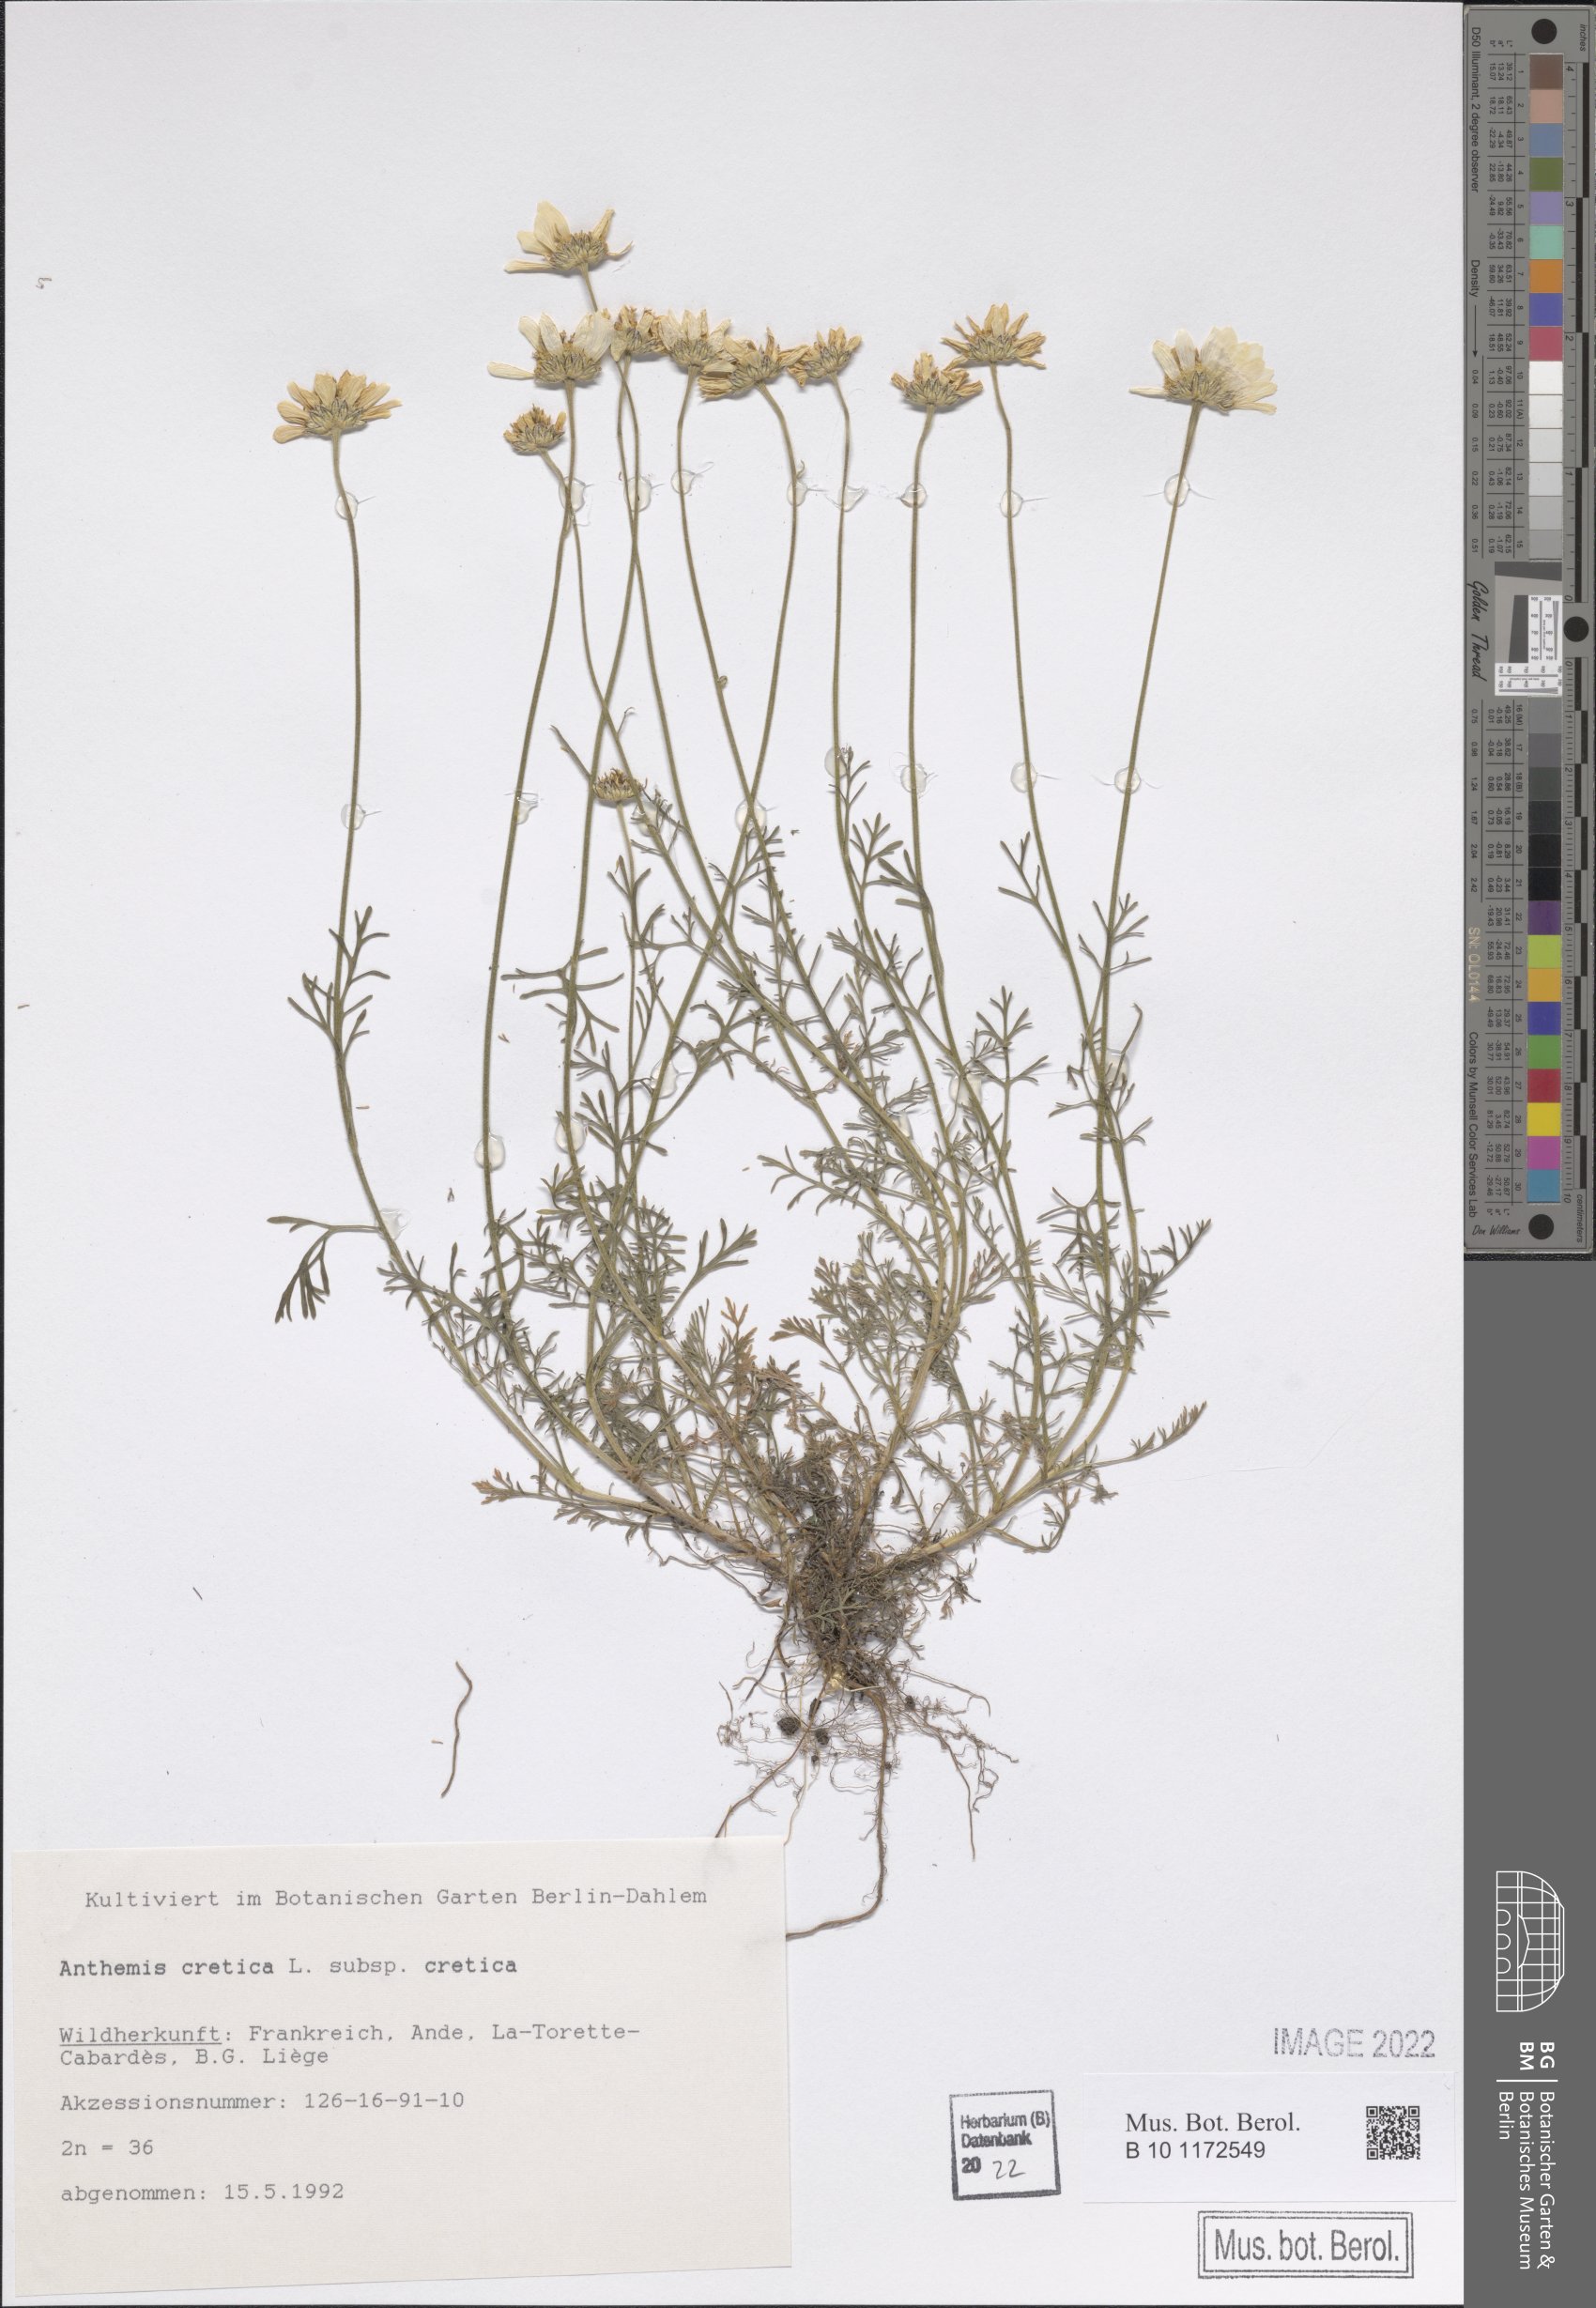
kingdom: Plantae
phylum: Tracheophyta
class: Magnoliopsida
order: Asterales
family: Asteraceae
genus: Anthemis
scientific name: Anthemis cretica
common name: Mountain dog-daisy
